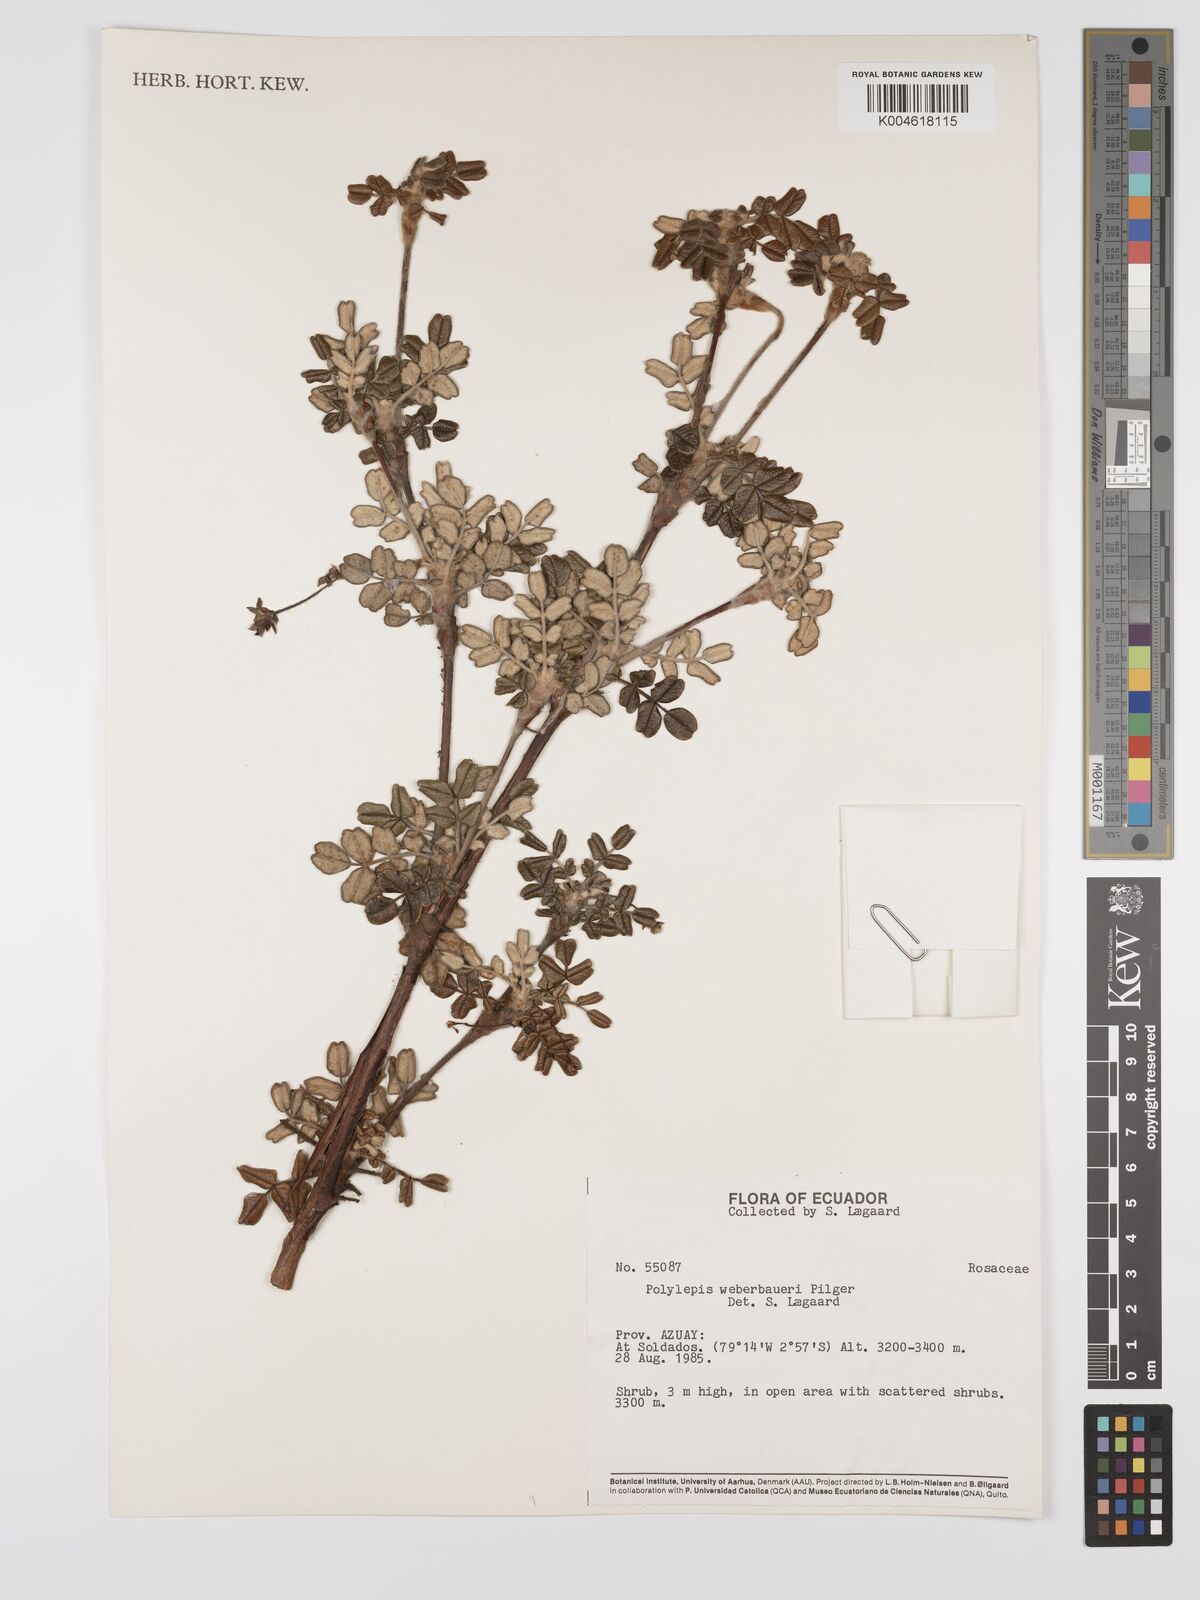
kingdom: Plantae
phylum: Tracheophyta
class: Magnoliopsida
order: Rosales
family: Rosaceae
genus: Polylepis
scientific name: Polylepis weberbaueri
